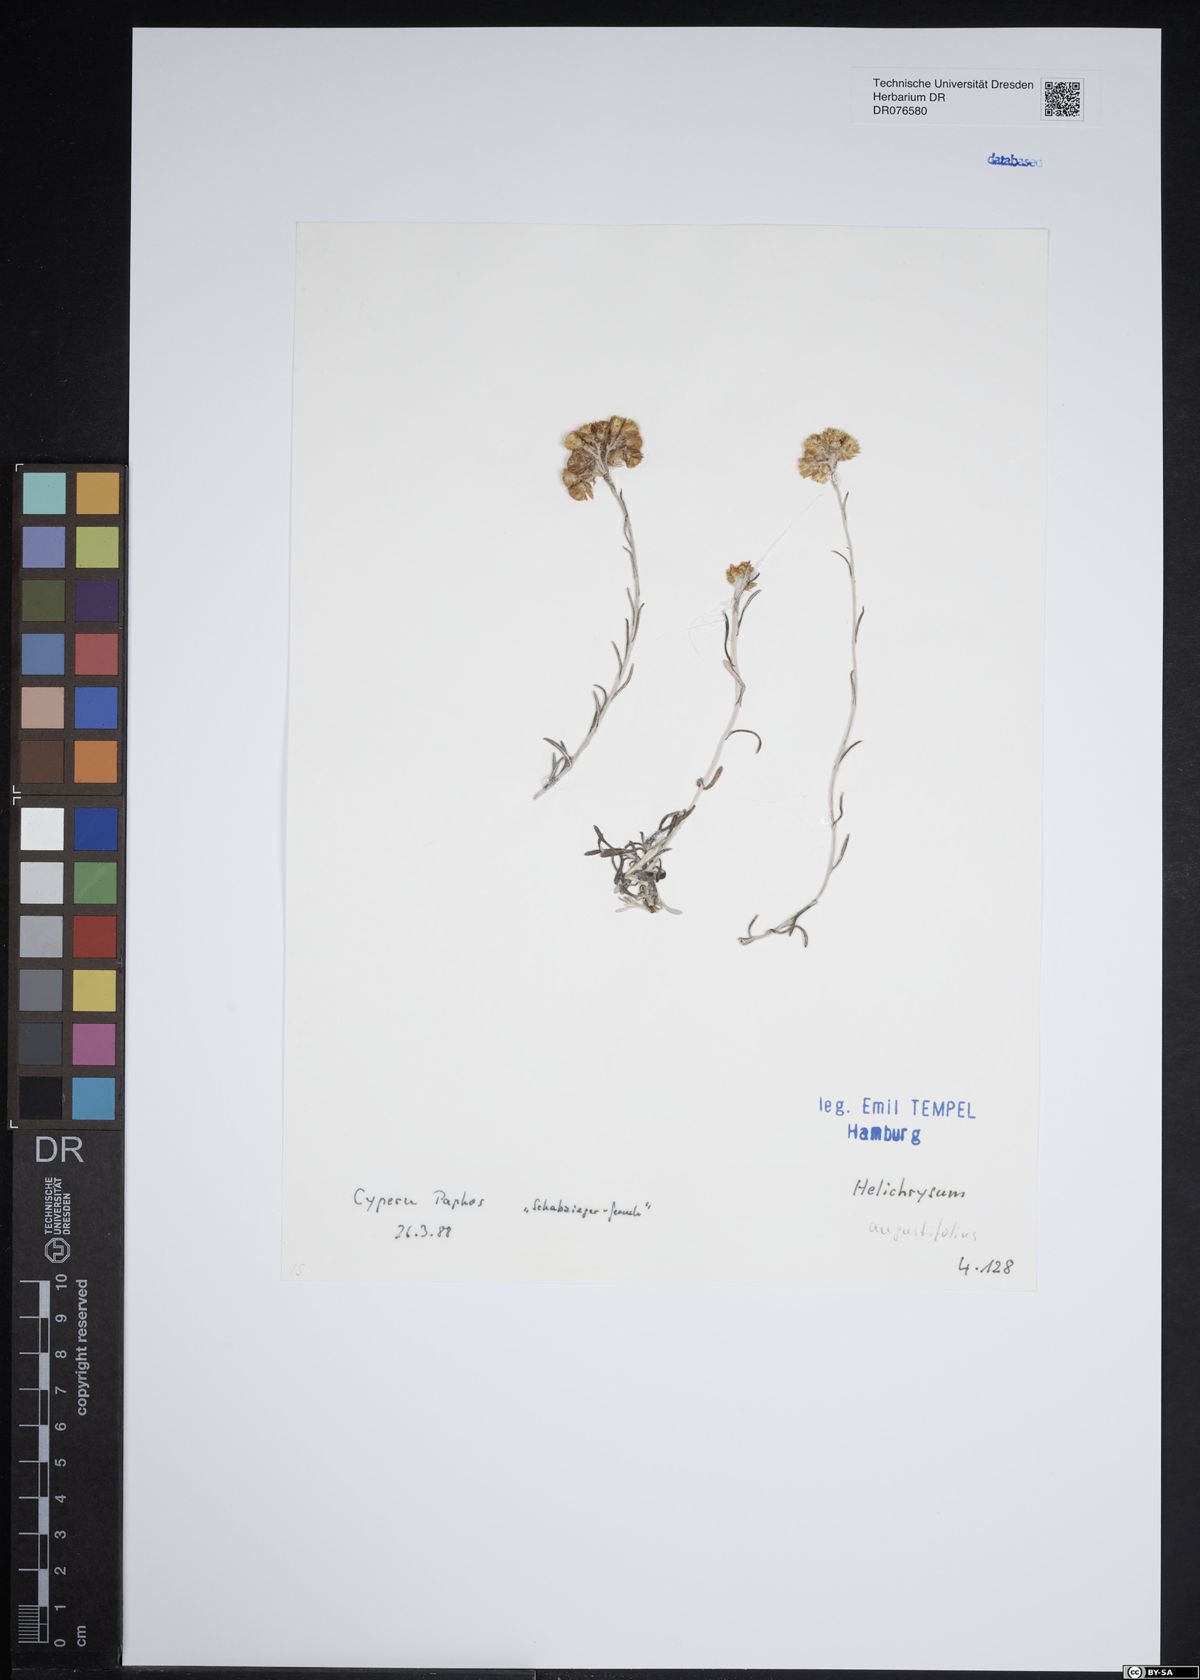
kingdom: Plantae
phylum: Tracheophyta
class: Magnoliopsida
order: Asterales
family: Asteraceae
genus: Helichrysum
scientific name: Helichrysum litoreum
